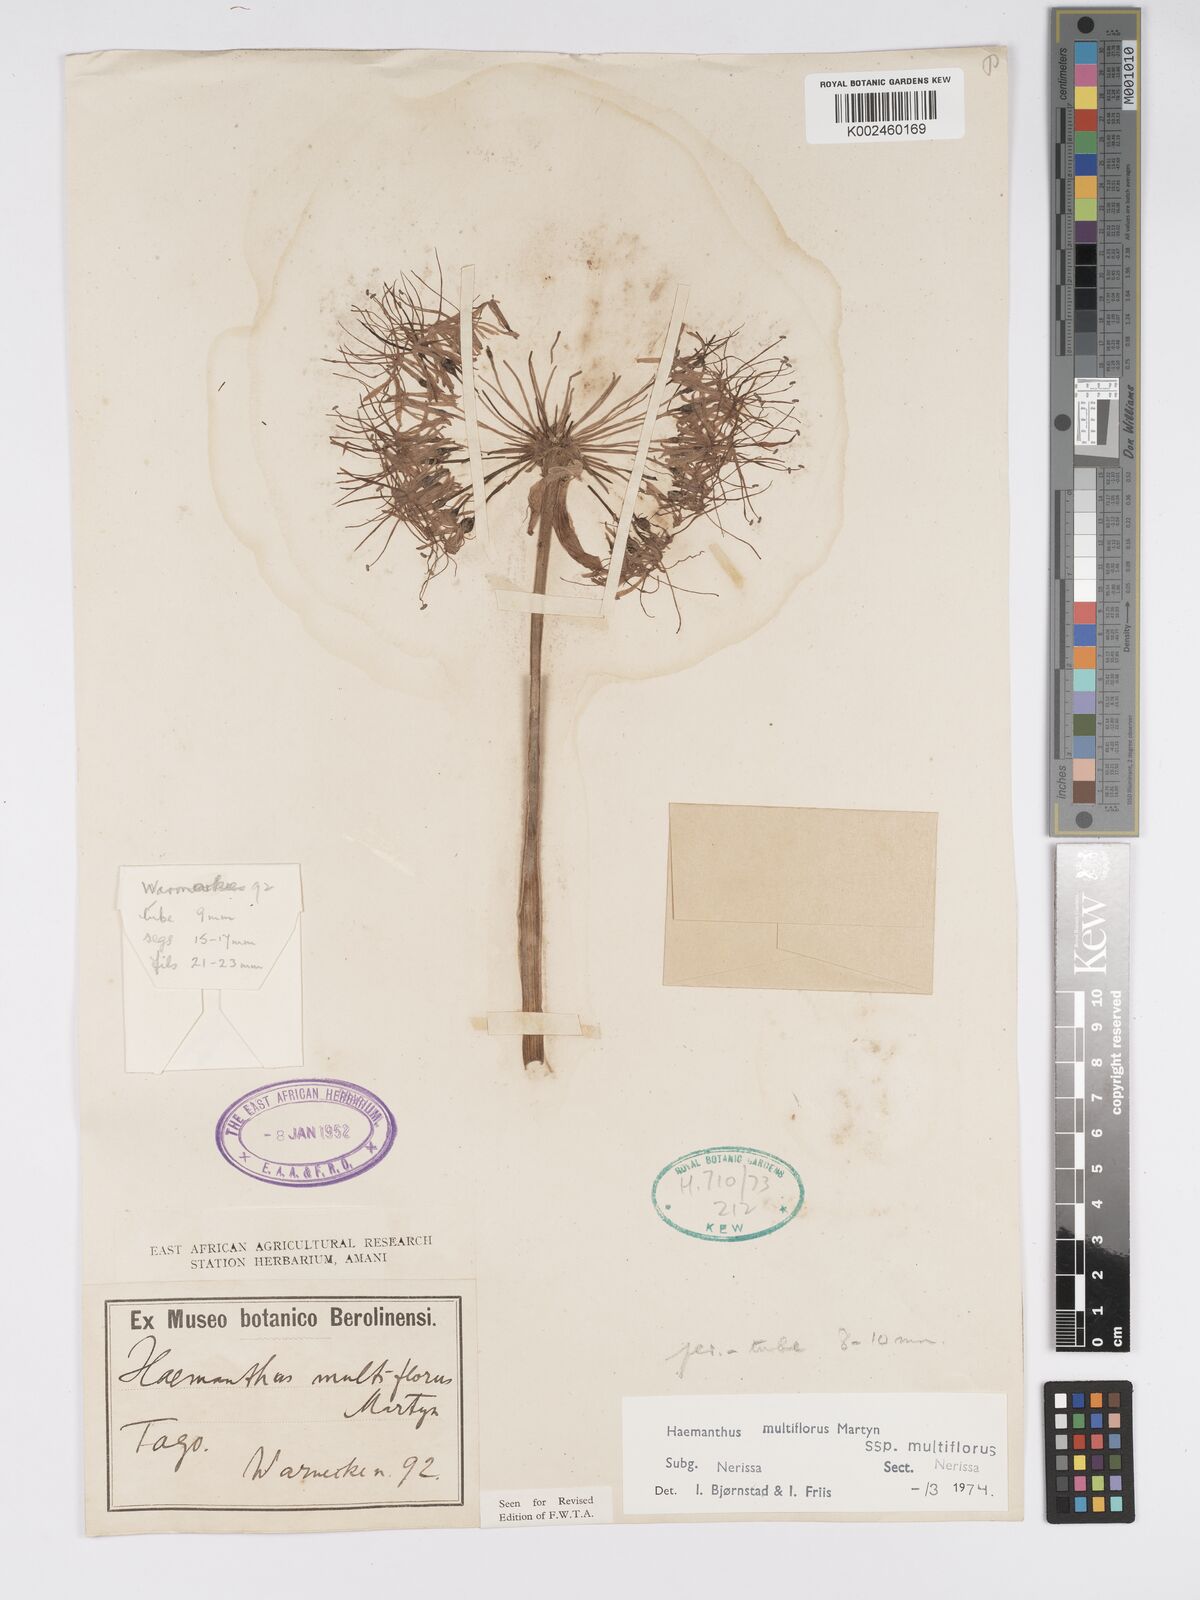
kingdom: Plantae
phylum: Tracheophyta
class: Liliopsida
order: Asparagales
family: Amaryllidaceae
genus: Scadoxus
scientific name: Scadoxus multiflorus
